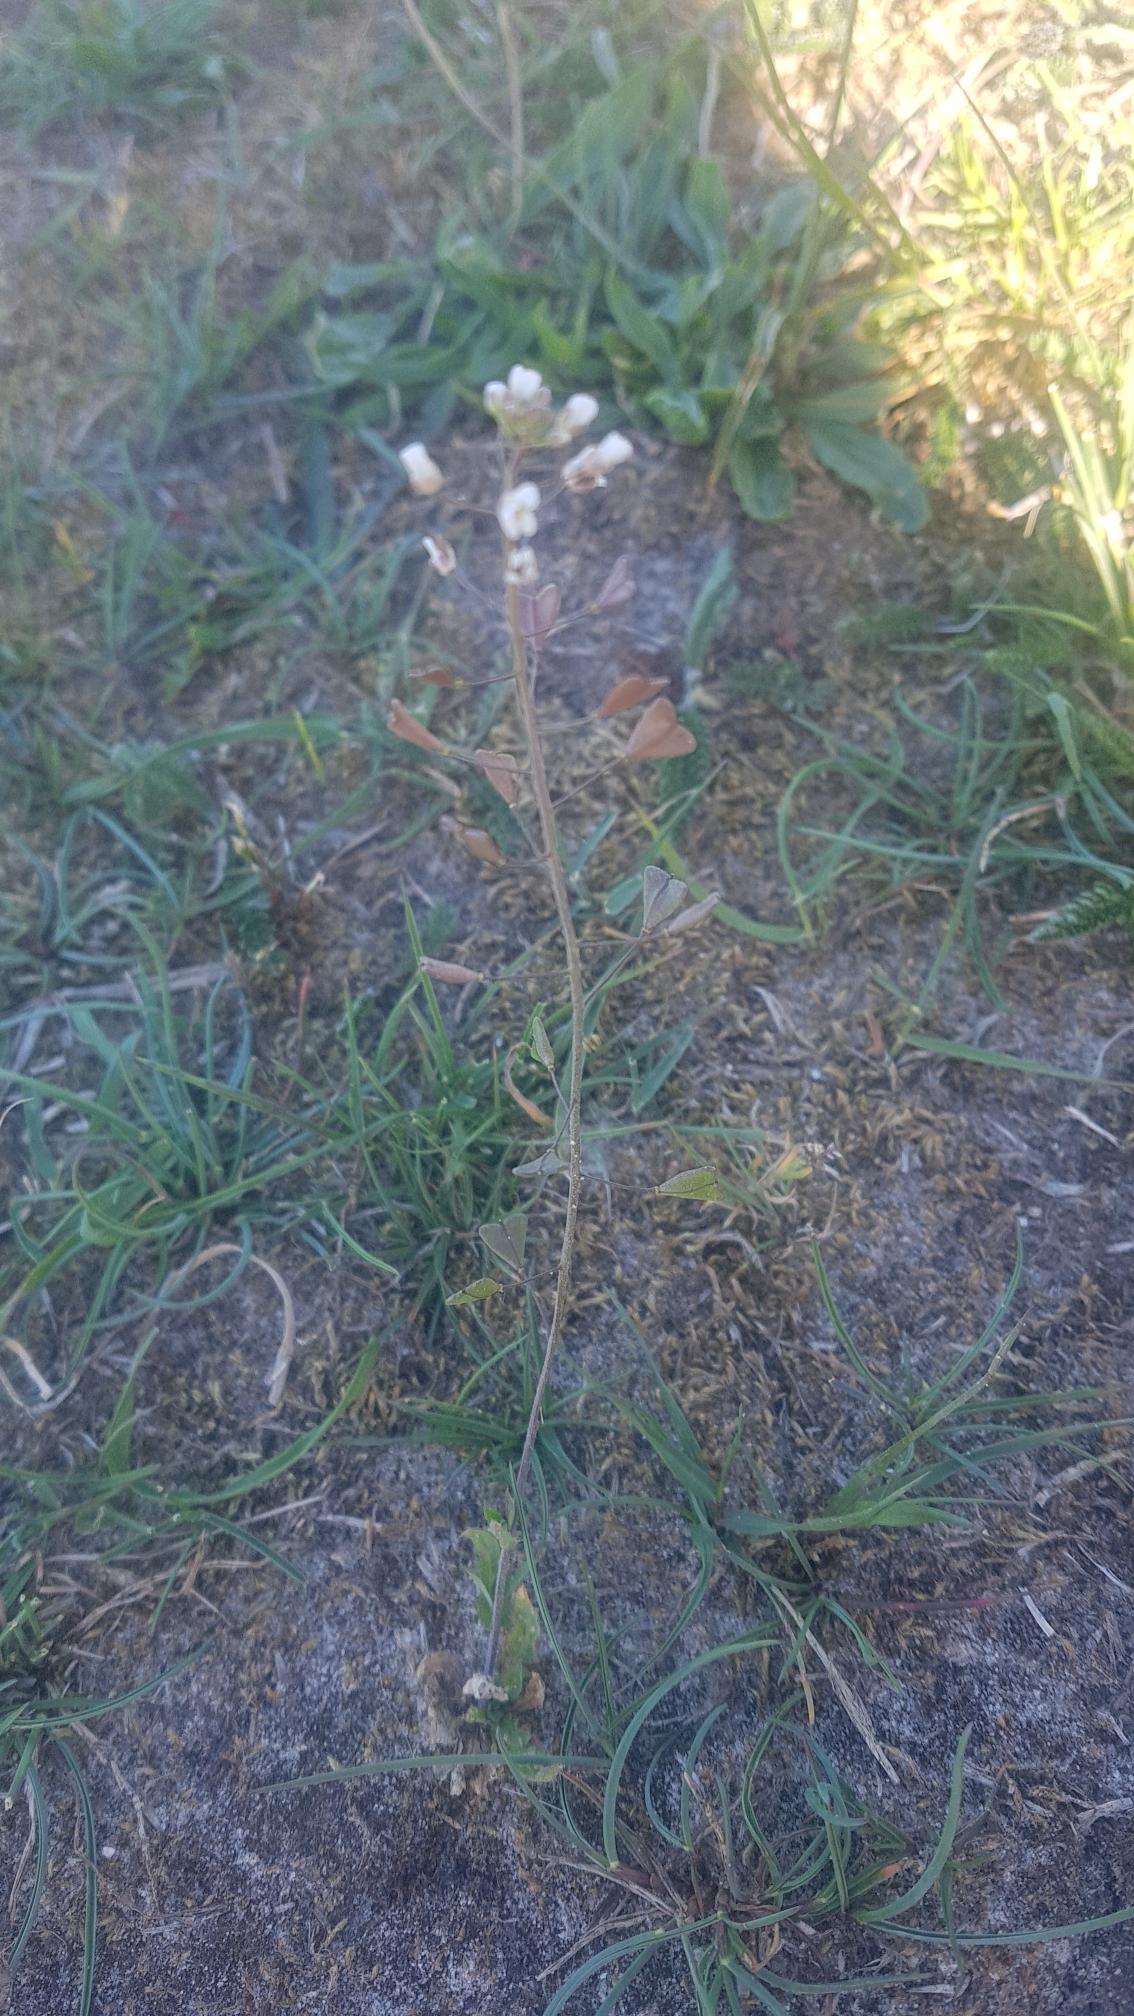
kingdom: Plantae
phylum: Tracheophyta
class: Magnoliopsida
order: Brassicales
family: Brassicaceae
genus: Capsella
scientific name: Capsella bursa-pastoris
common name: Hyrdetaske
